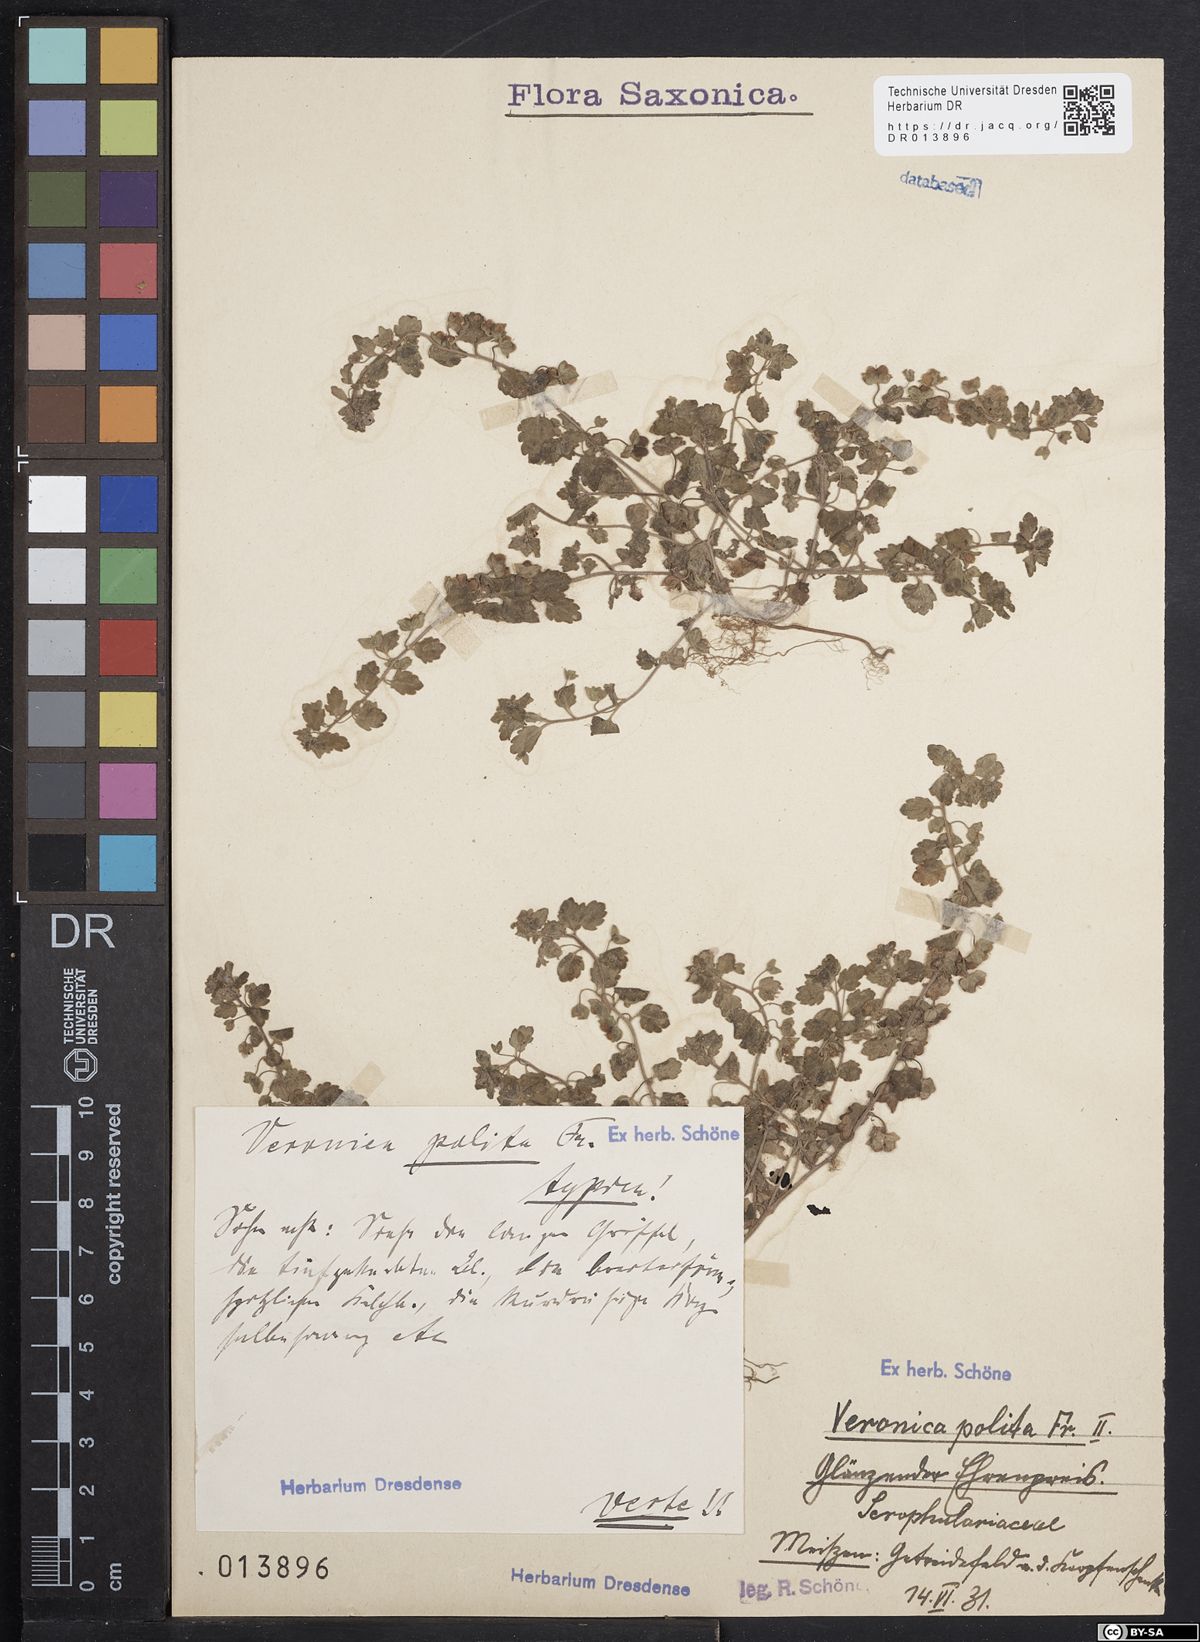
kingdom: Plantae
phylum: Tracheophyta
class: Magnoliopsida
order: Lamiales
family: Plantaginaceae
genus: Veronica
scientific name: Veronica polita
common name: Grey field-speedwell
